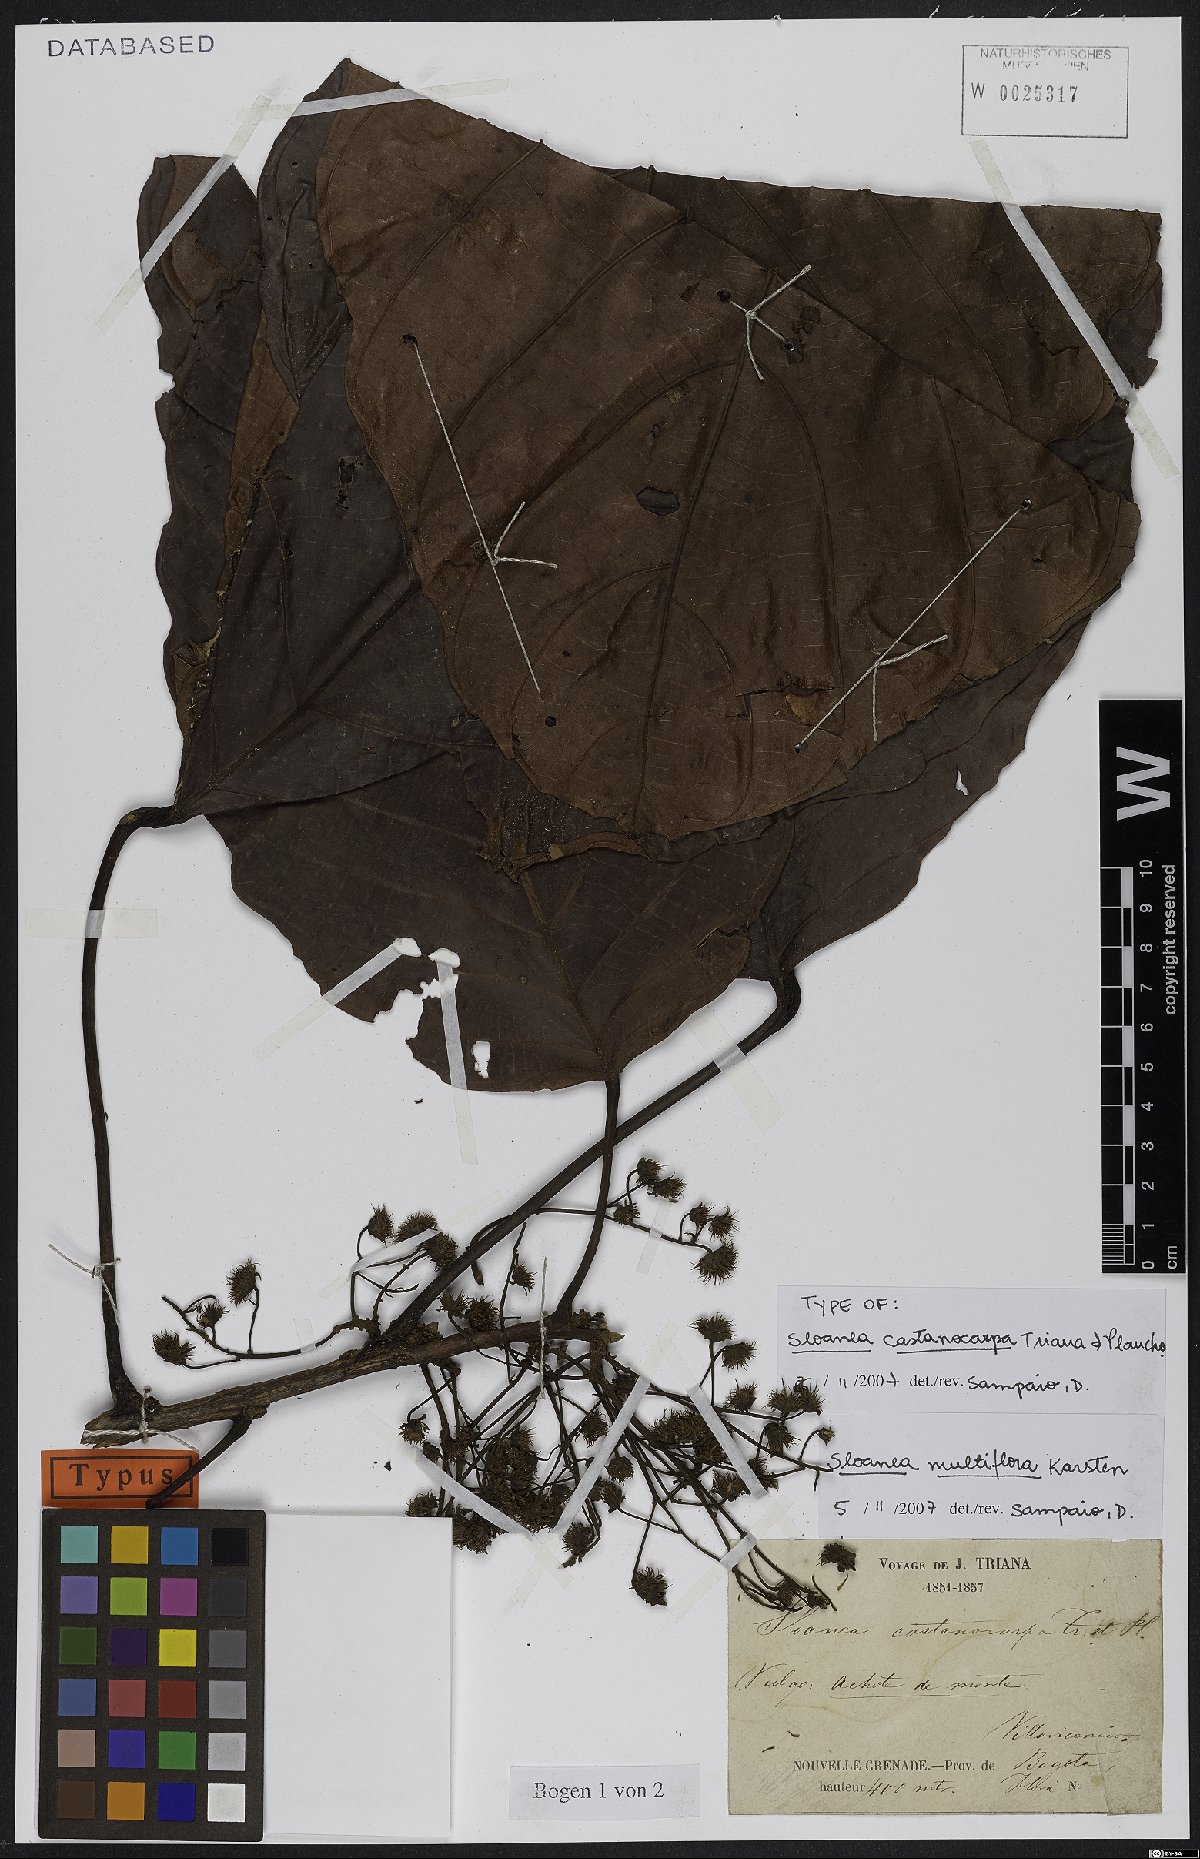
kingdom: Plantae
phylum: Tracheophyta
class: Magnoliopsida
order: Oxalidales
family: Elaeocarpaceae
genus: Sloanea
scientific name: Sloanea castanocarpa
